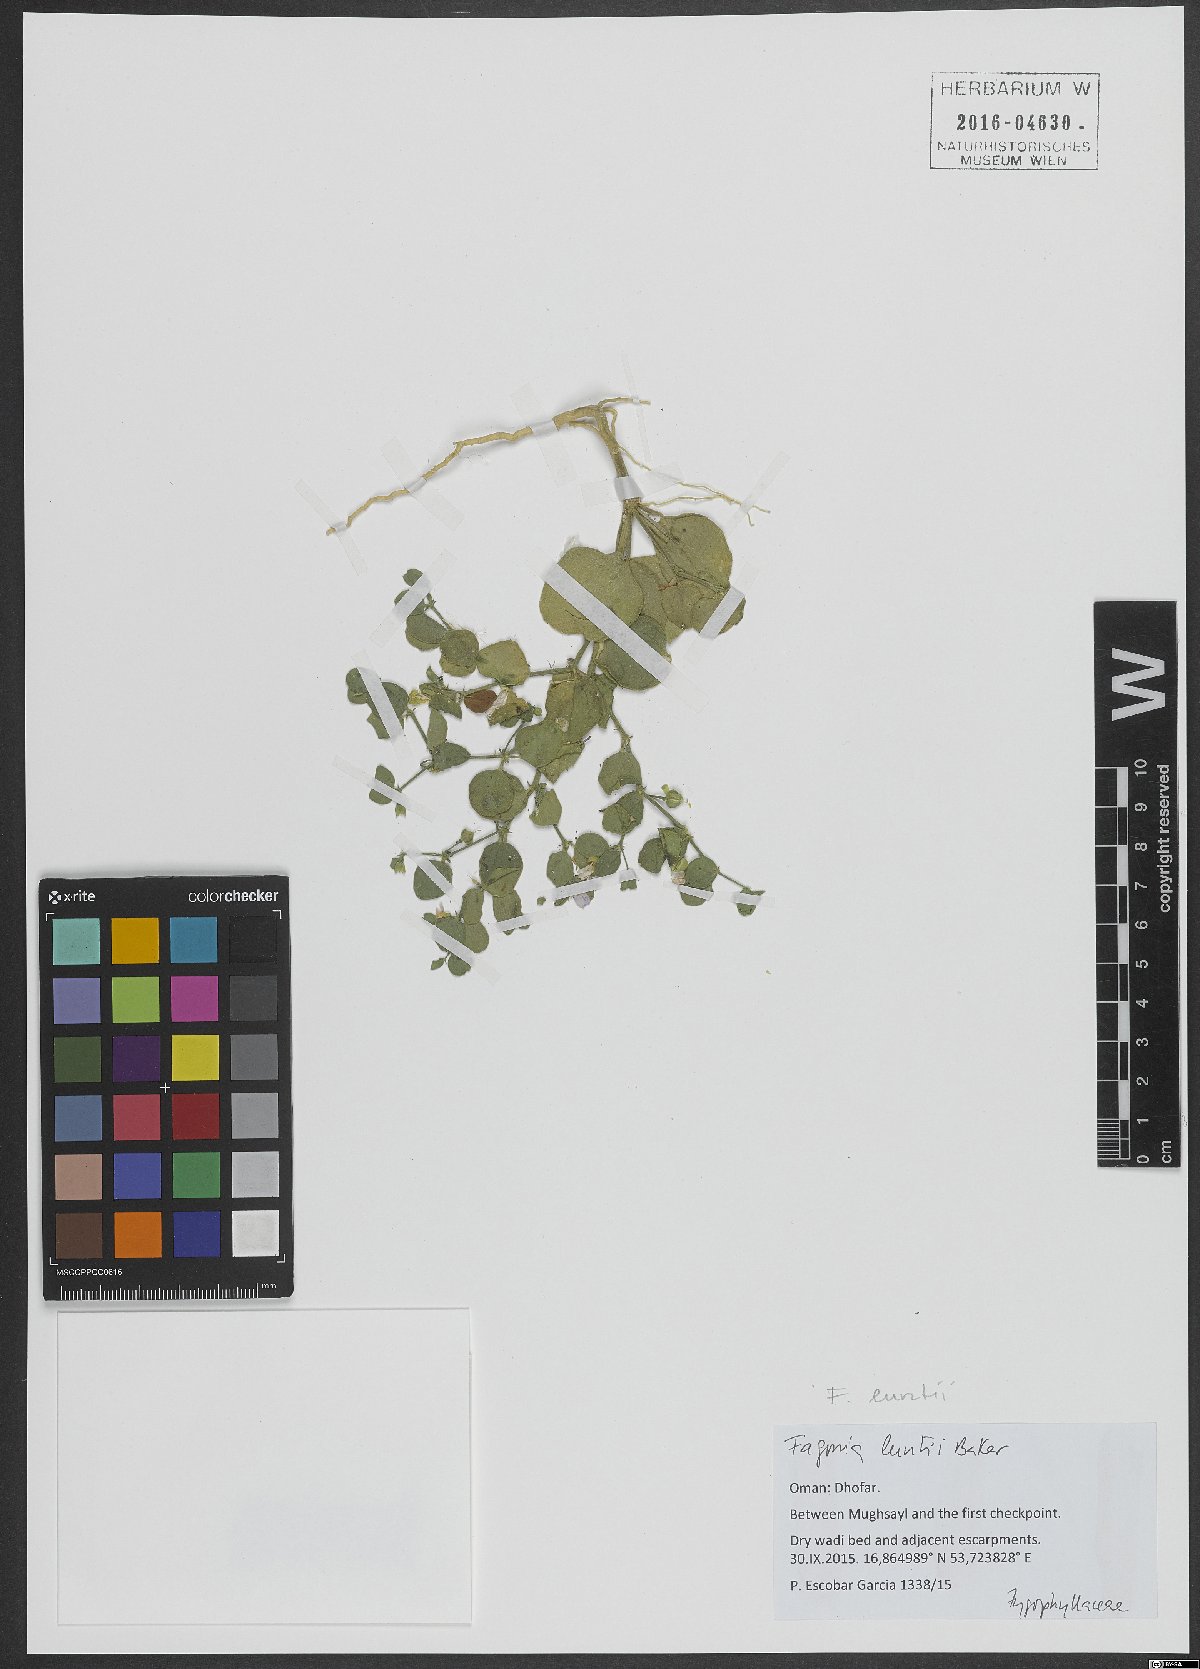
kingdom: Plantae
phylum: Tracheophyta
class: Magnoliopsida
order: Zygophyllales
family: Zygophyllaceae
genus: Fagonia
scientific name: Fagonia socotrana
